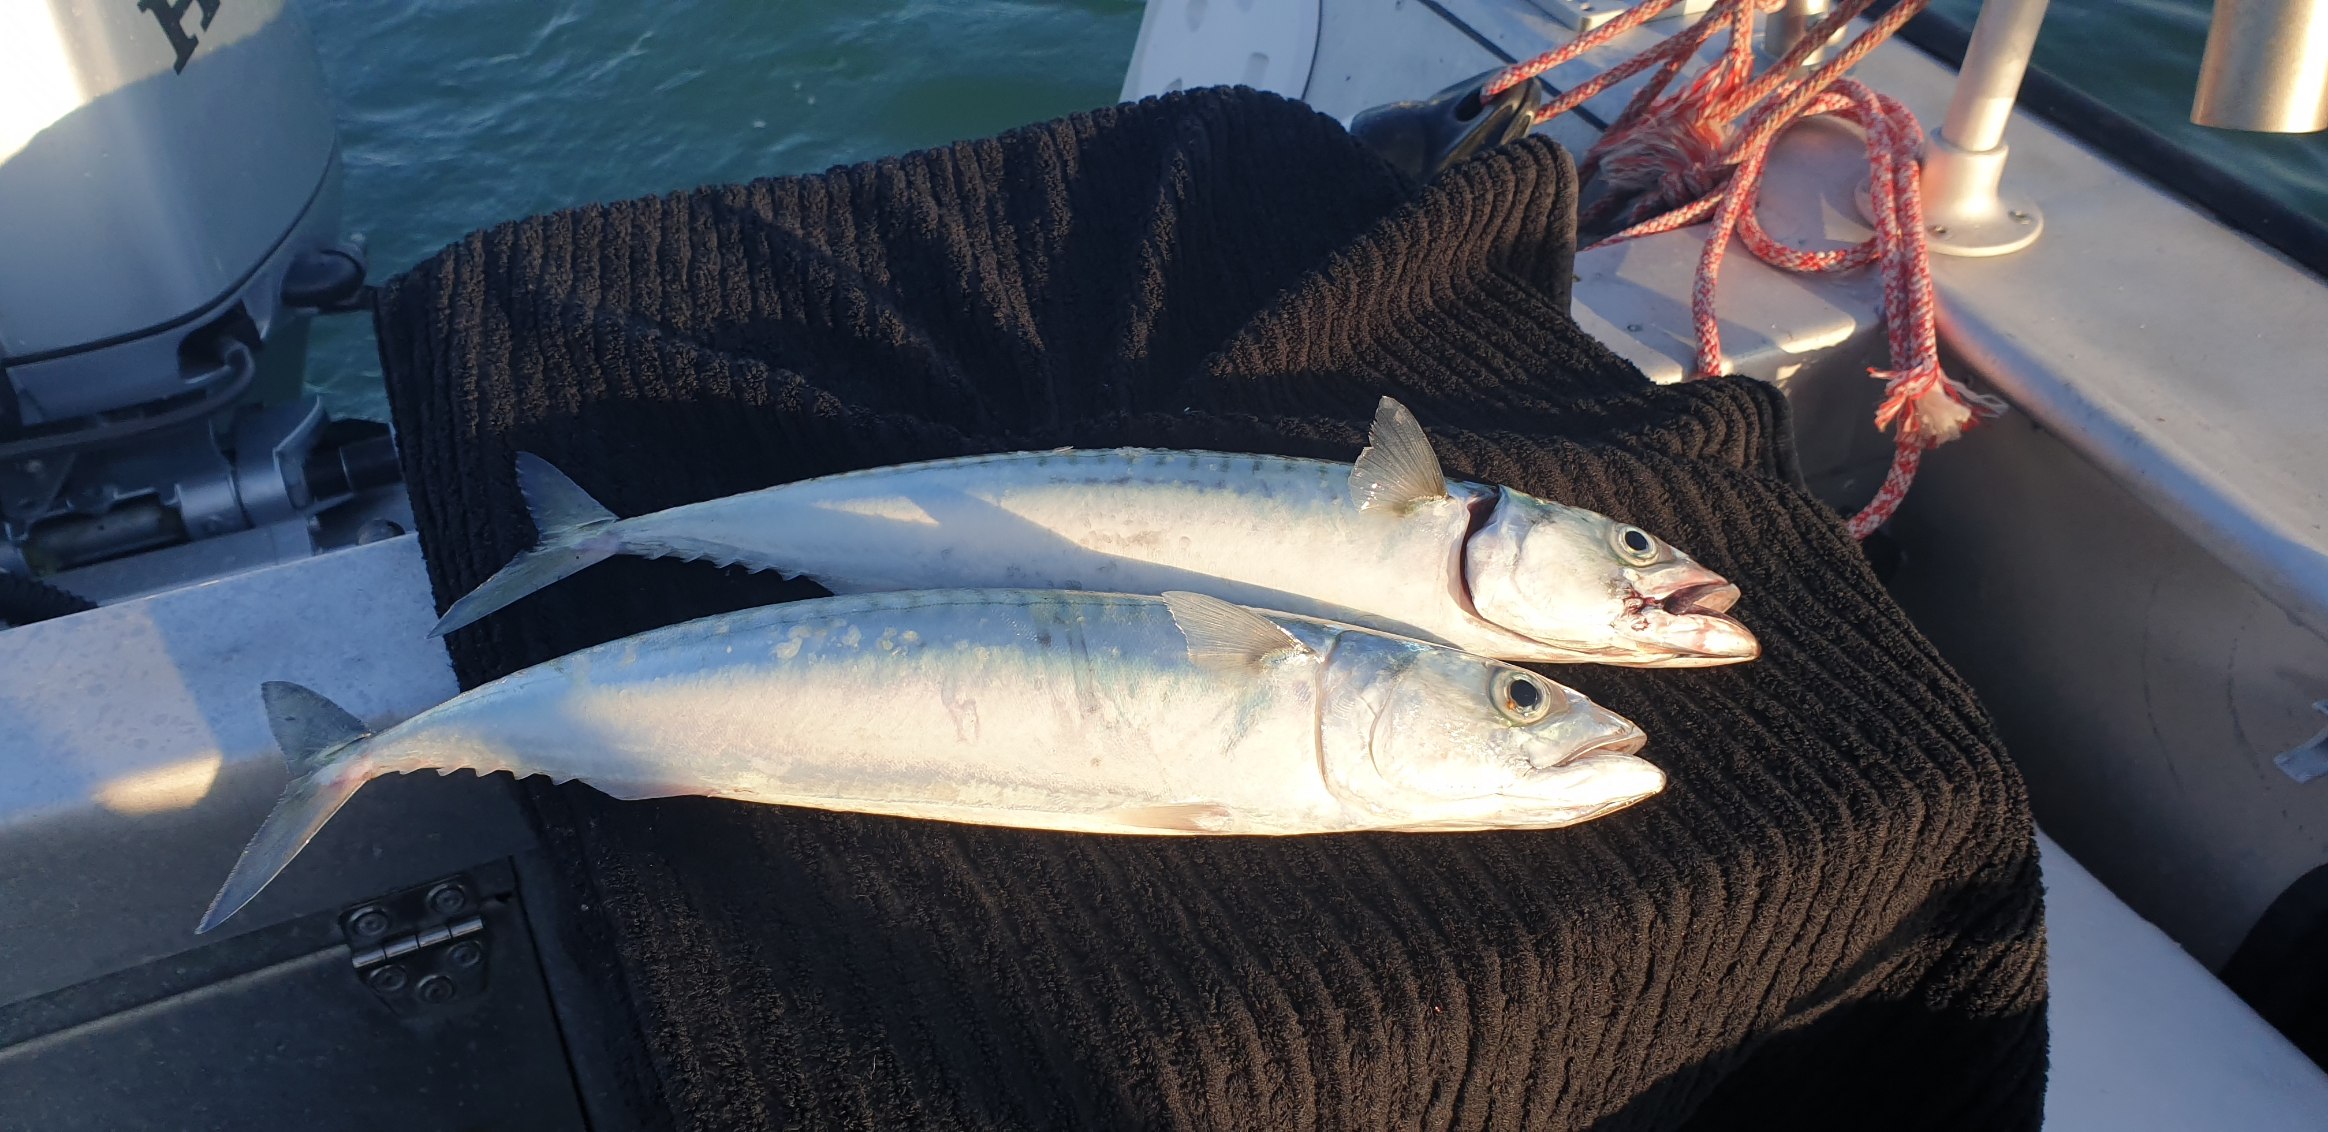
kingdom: Animalia
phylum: Chordata
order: Perciformes
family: Scombridae
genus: Scomber
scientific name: Scomber scombrus
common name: Makrel
